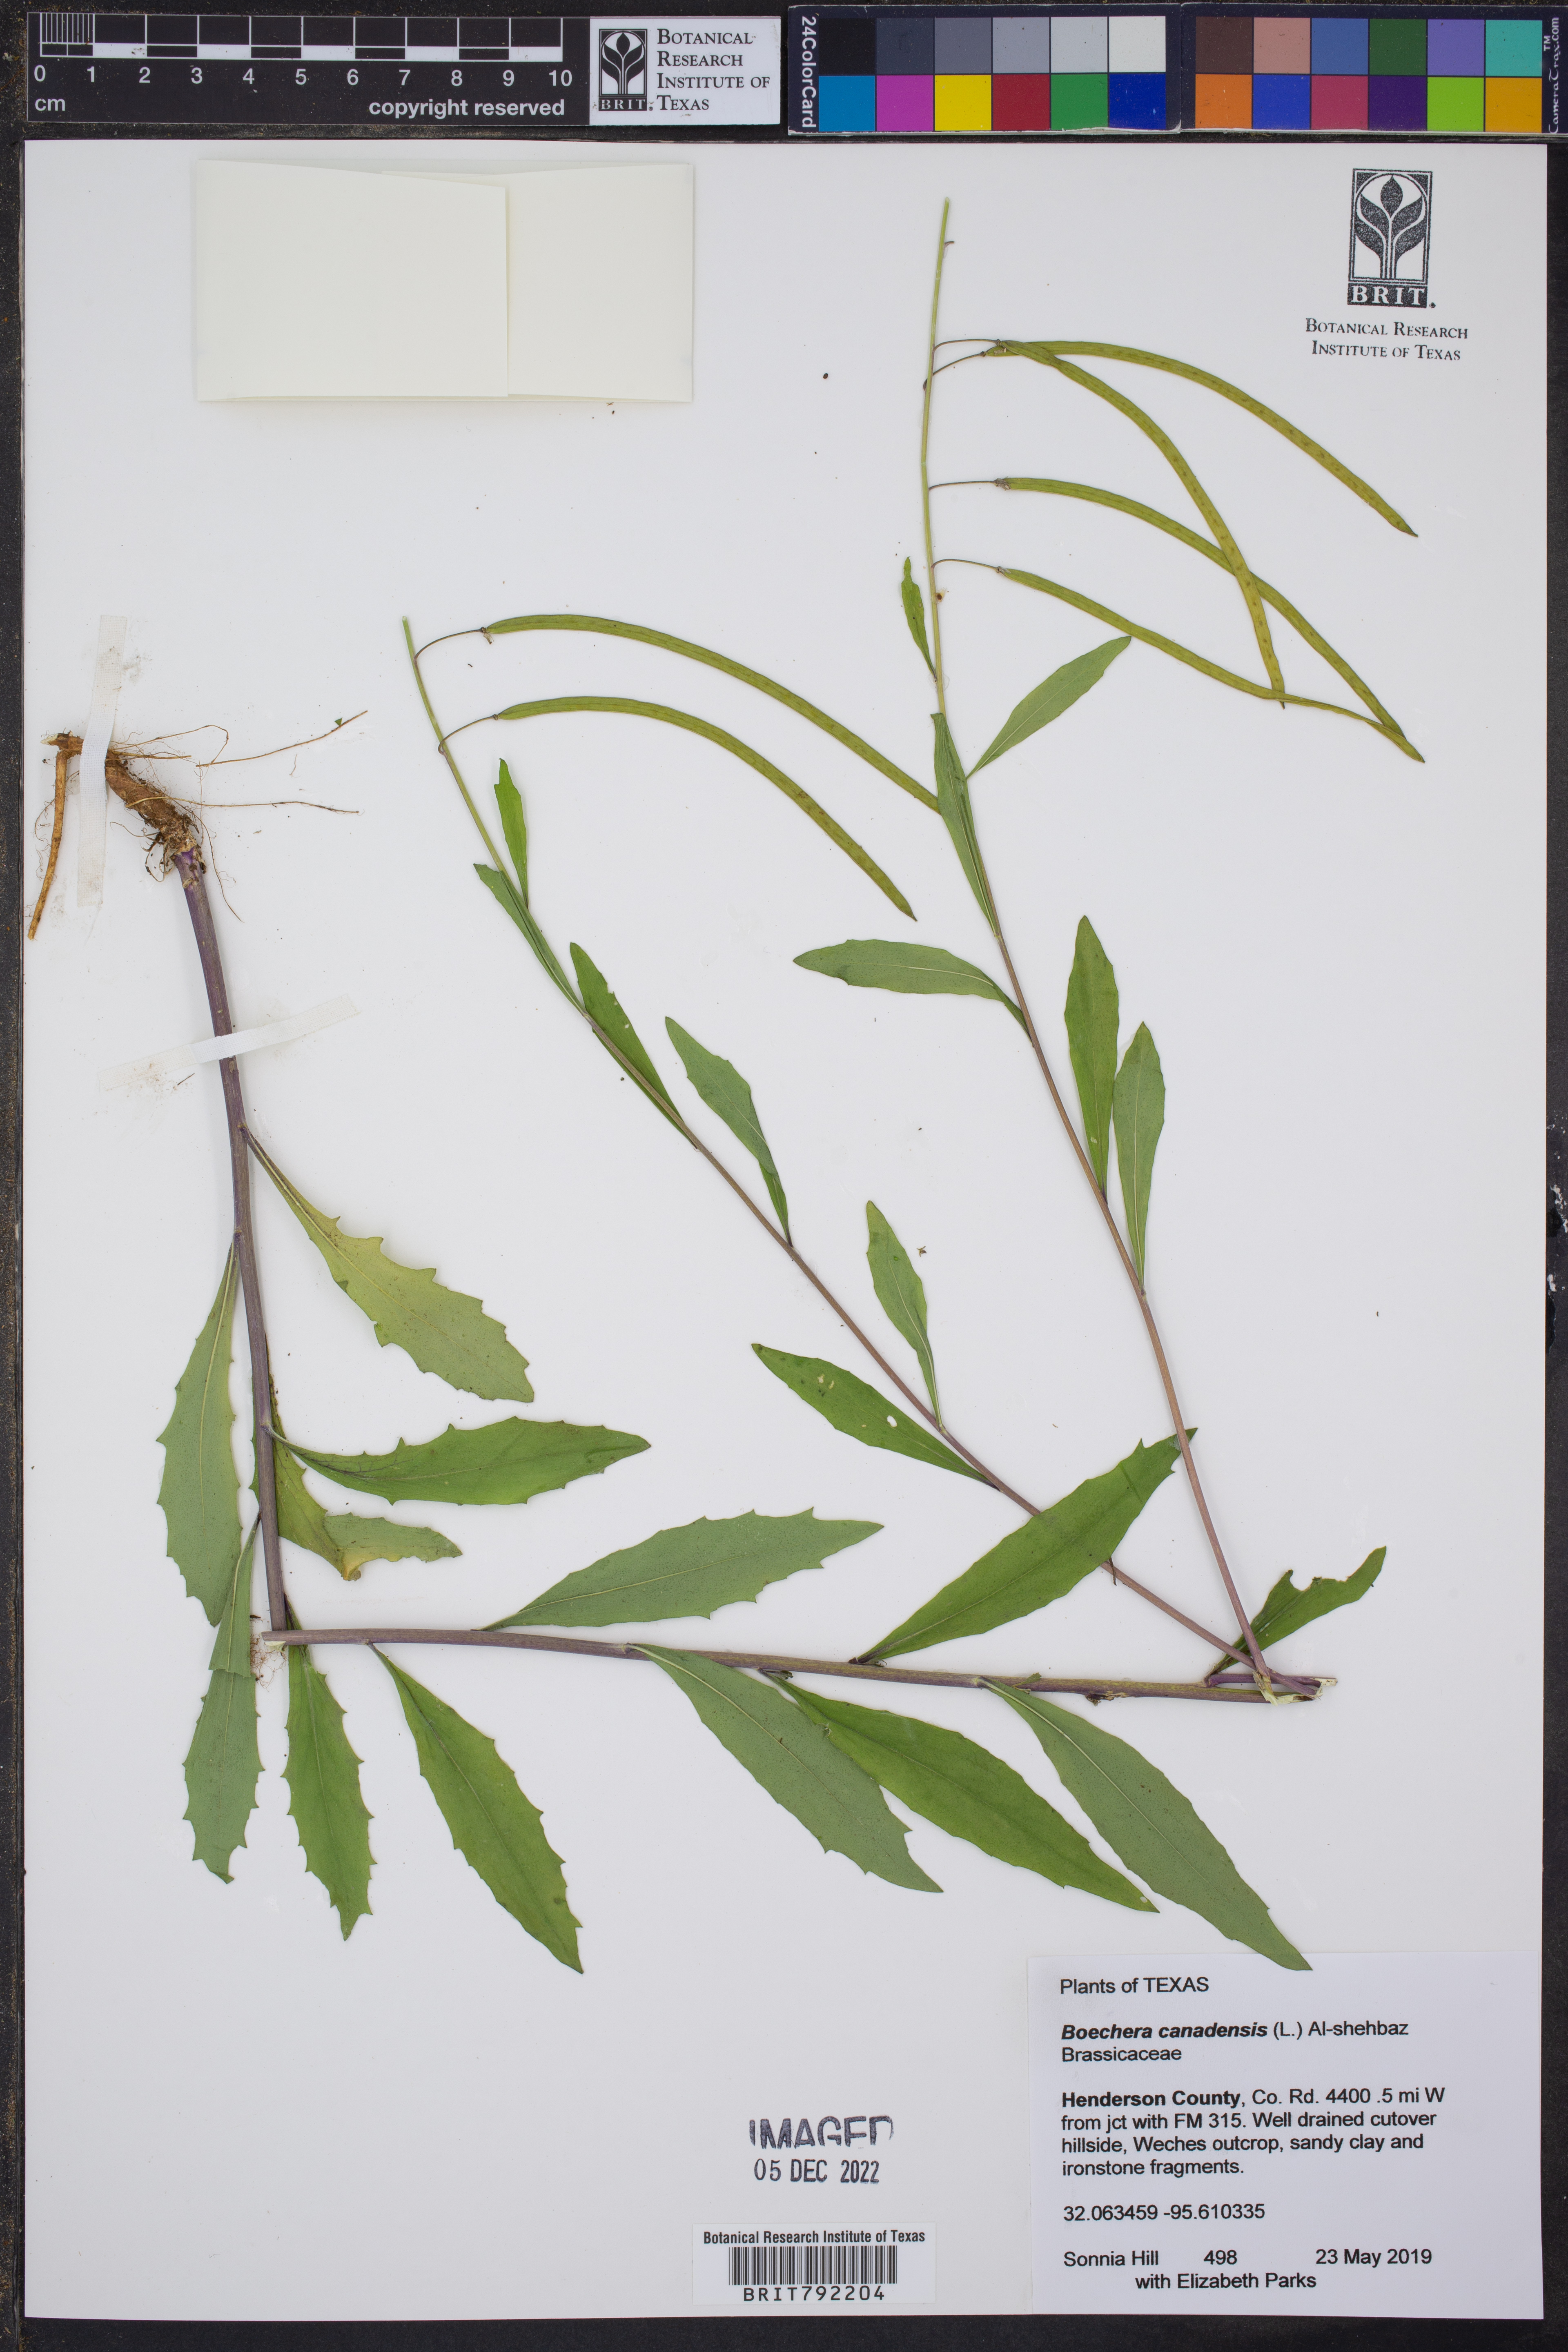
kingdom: Plantae
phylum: Tracheophyta
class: Magnoliopsida
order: Brassicales
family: Brassicaceae
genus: Borodinia
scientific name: Borodinia canadensis
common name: Sicklepod
